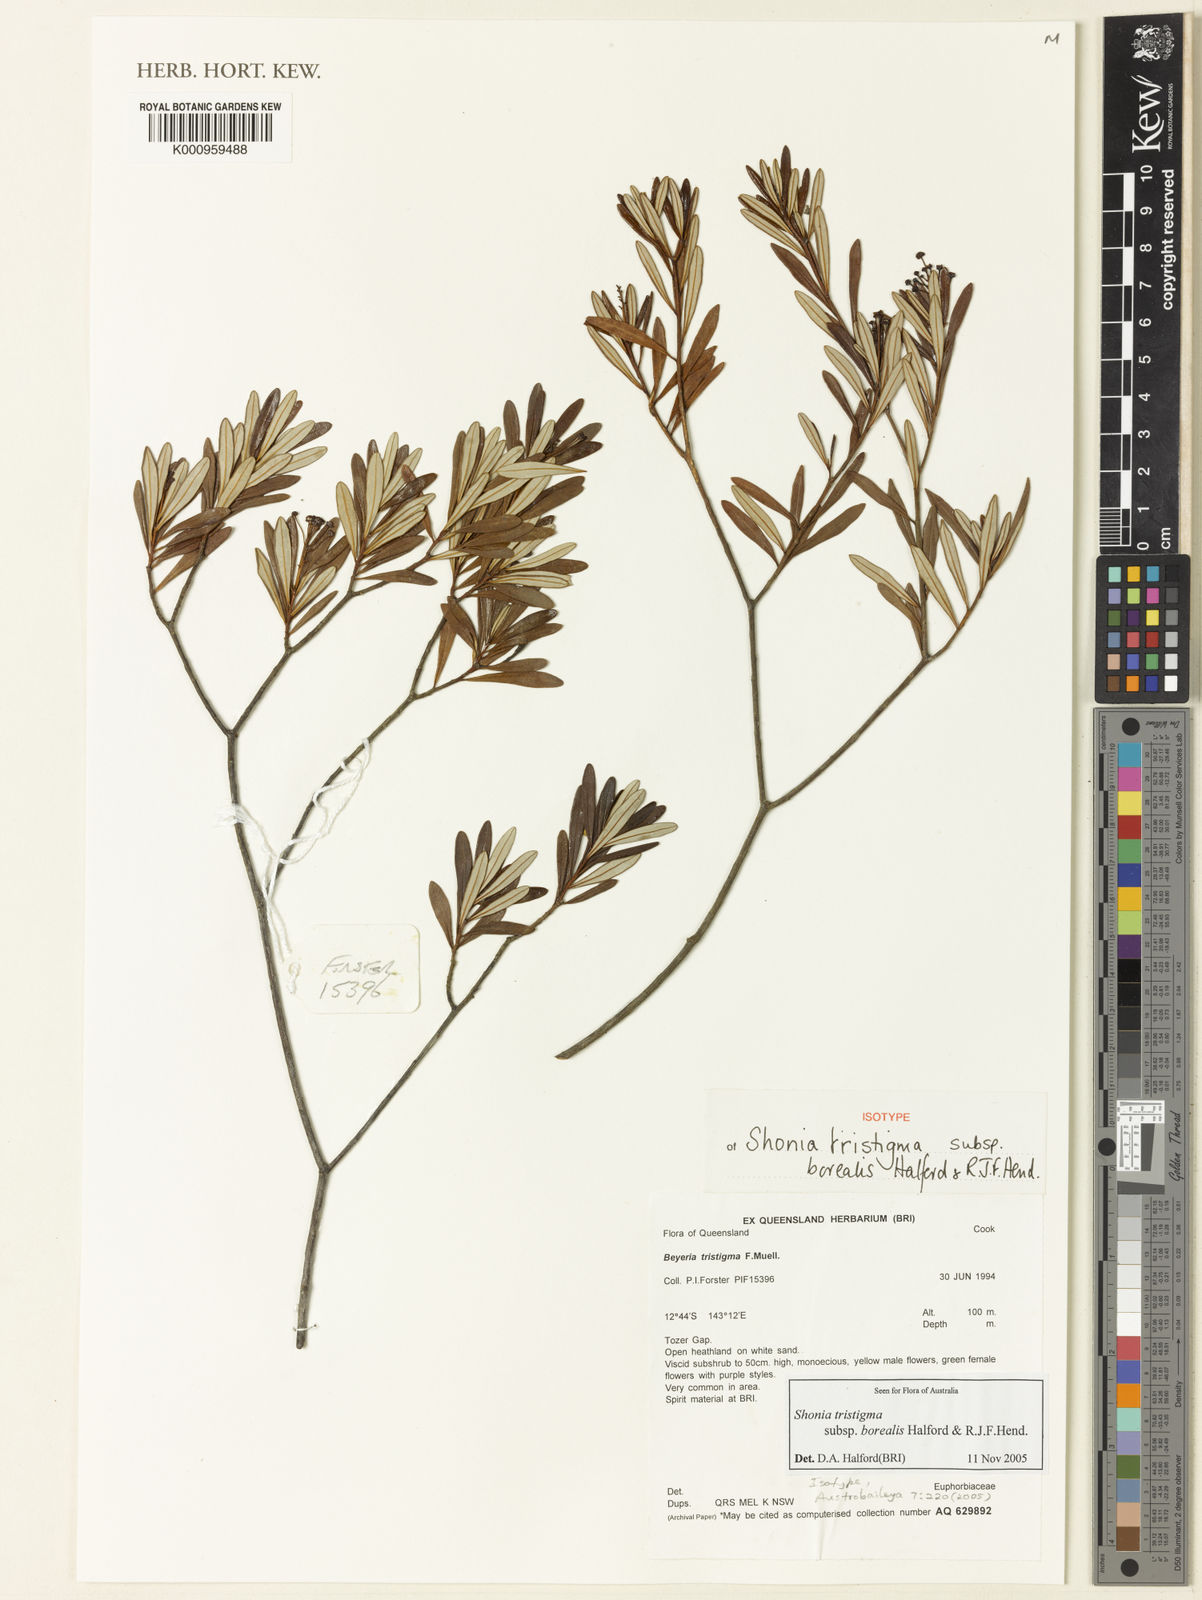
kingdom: Plantae
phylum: Tracheophyta
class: Magnoliopsida
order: Malpighiales
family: Euphorbiaceae
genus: Shonia
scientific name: Shonia tristigma
